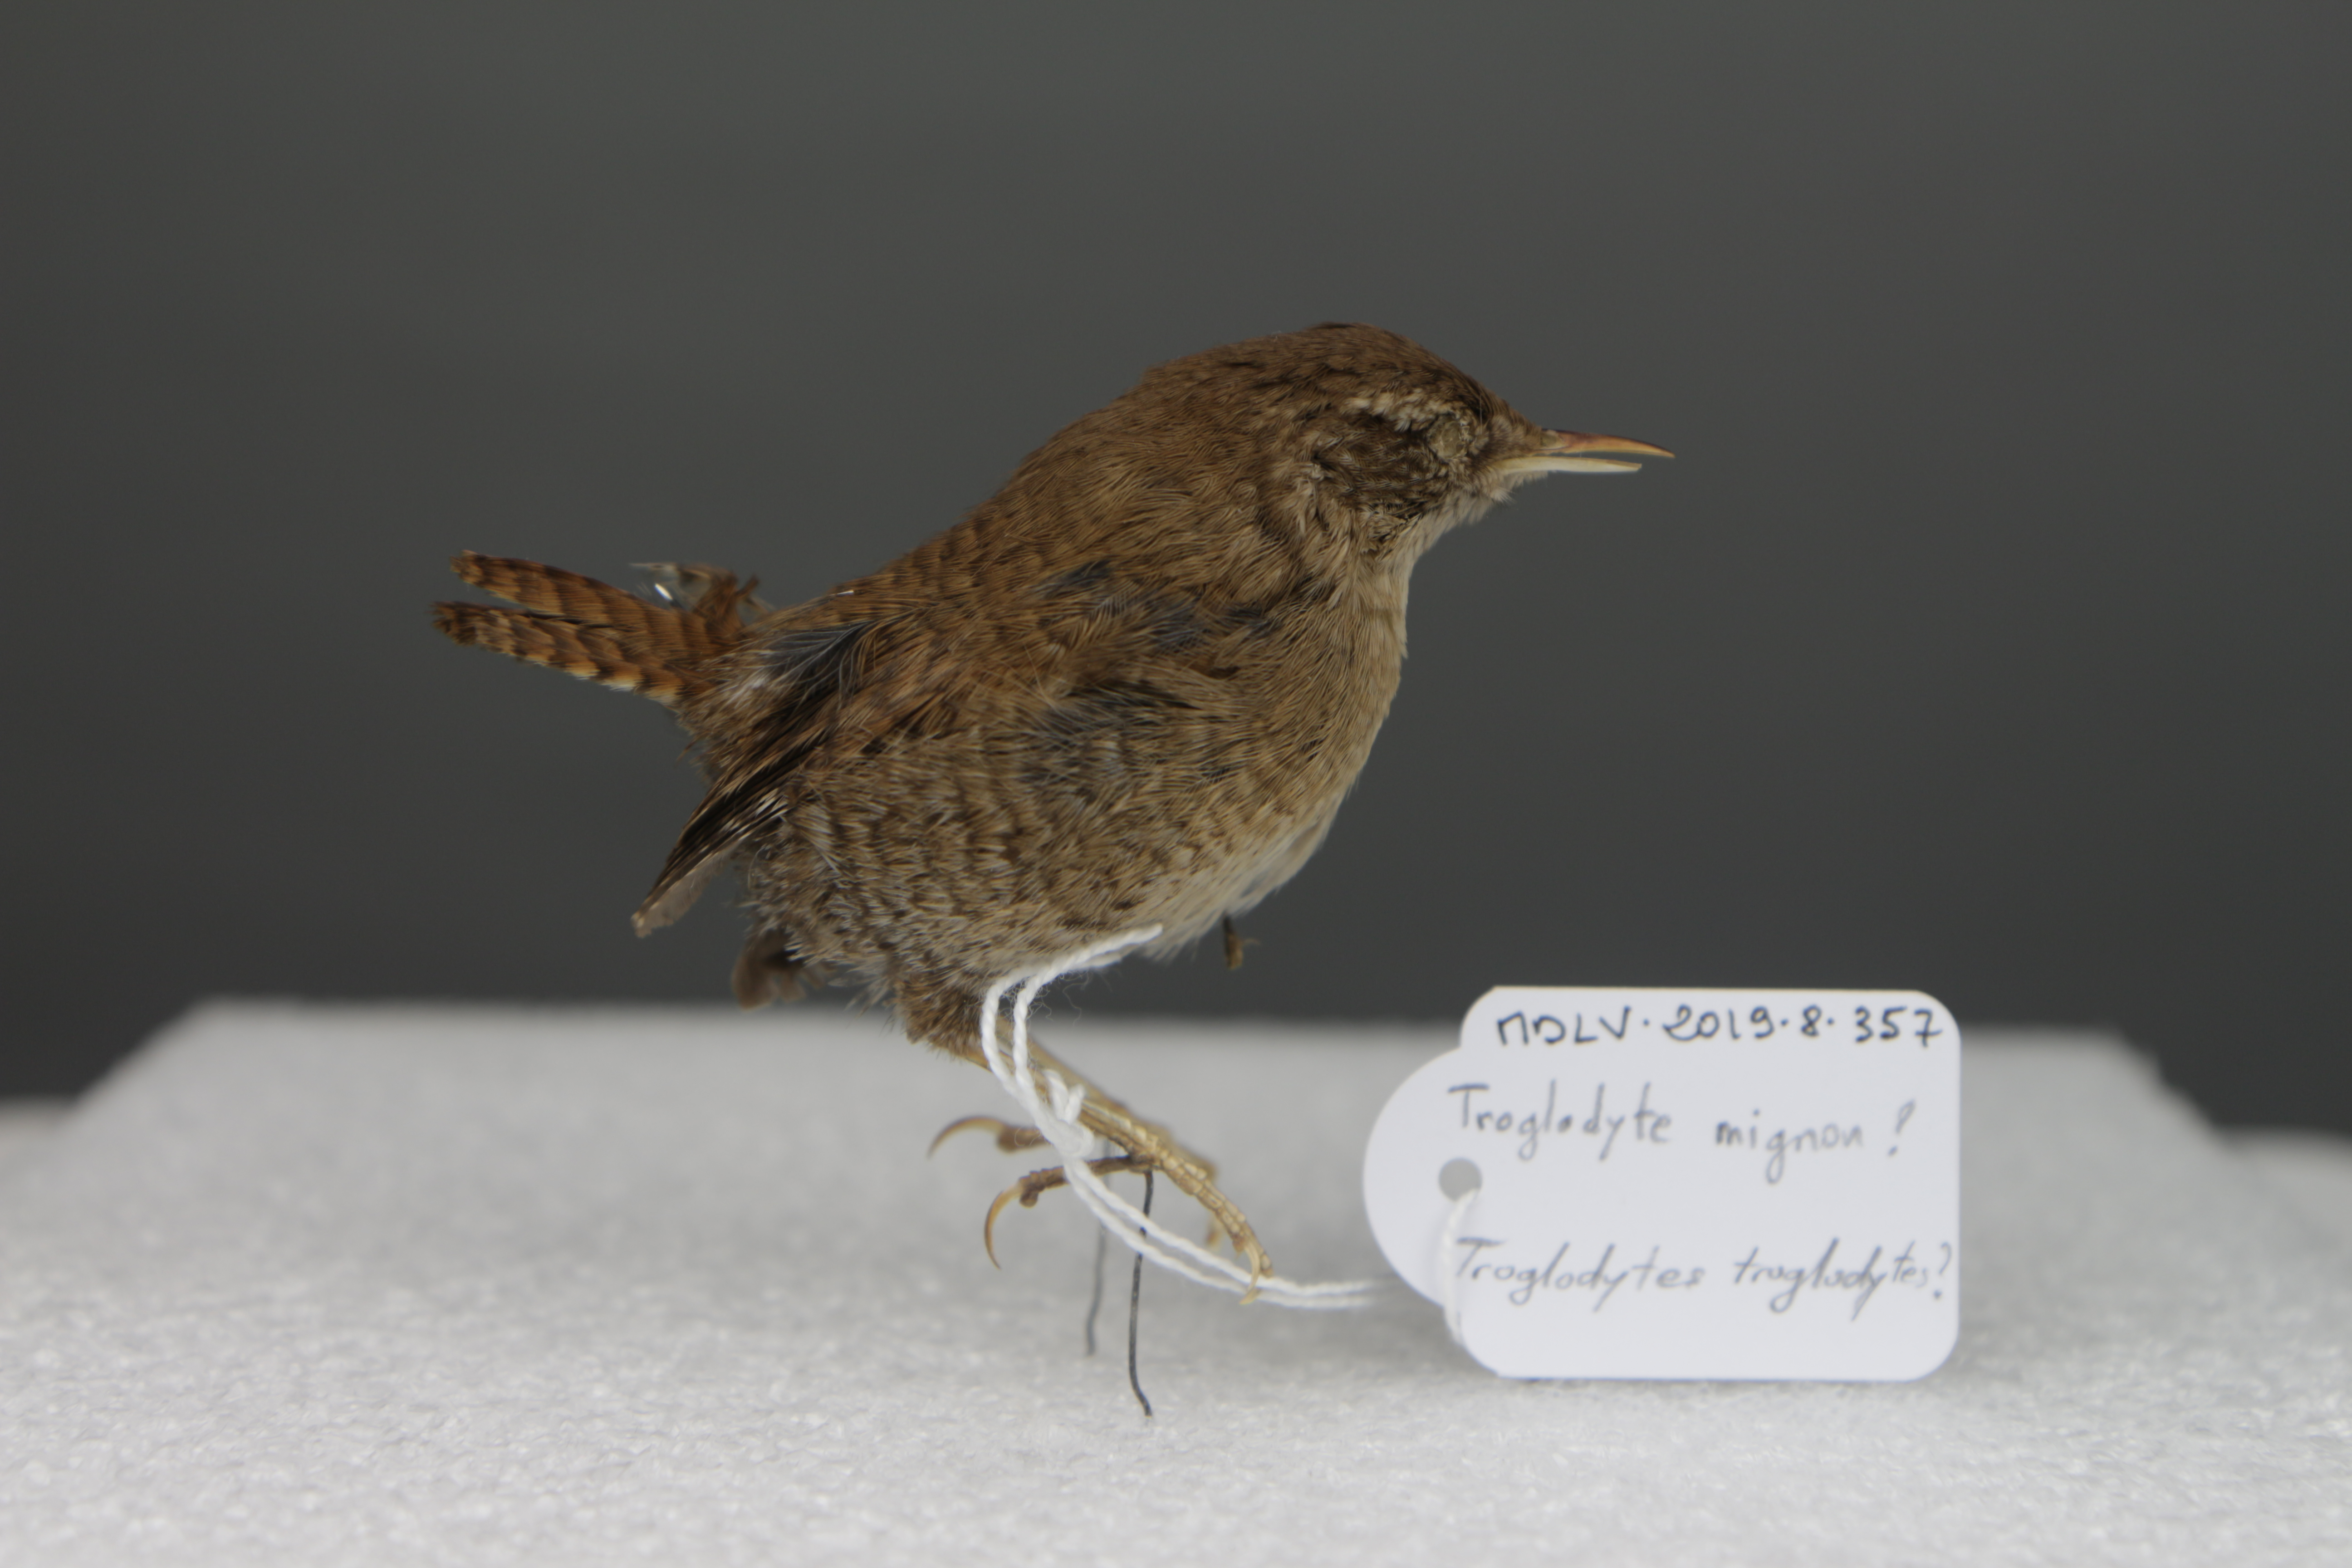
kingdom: Animalia
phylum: Chordata
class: Aves
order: Passeriformes
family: Troglodytidae
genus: Troglodytes
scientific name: Troglodytes troglodytes
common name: Eurasian wren
